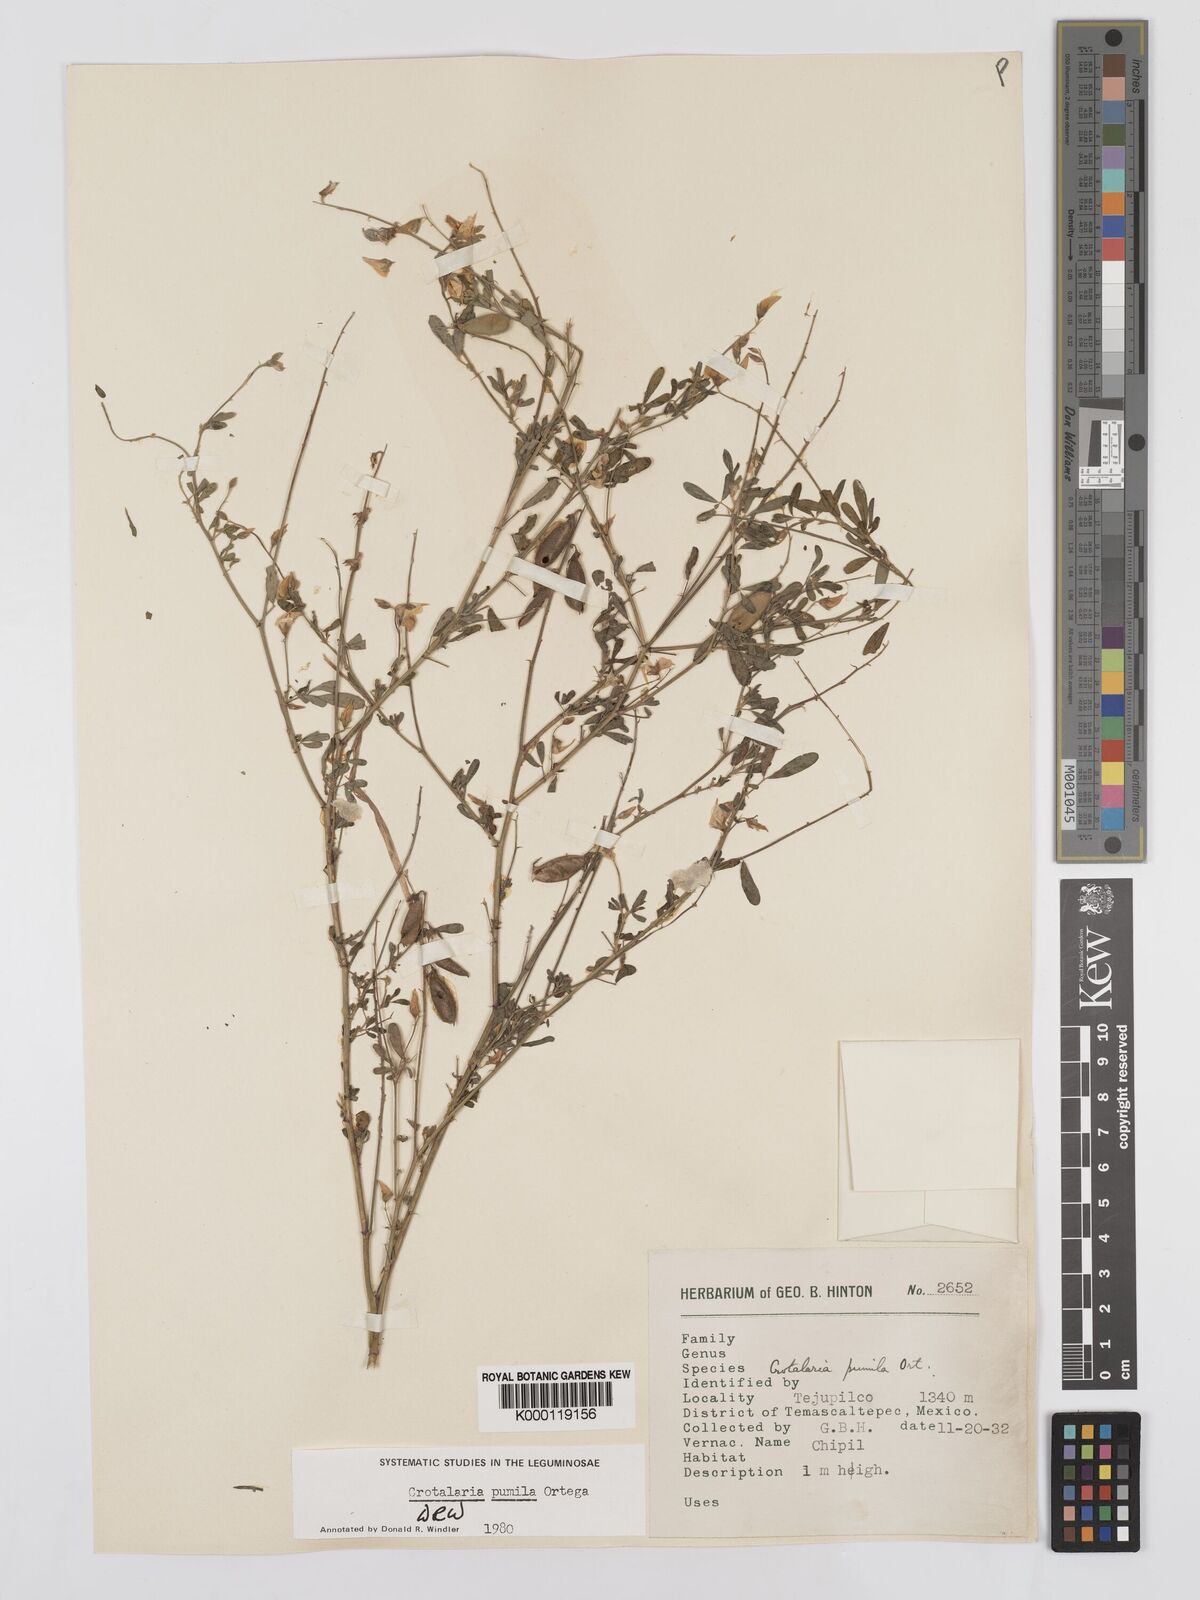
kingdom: Plantae
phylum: Tracheophyta
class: Magnoliopsida
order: Fabales
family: Fabaceae
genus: Crotalaria
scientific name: Crotalaria pumila
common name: Low rattlebox
